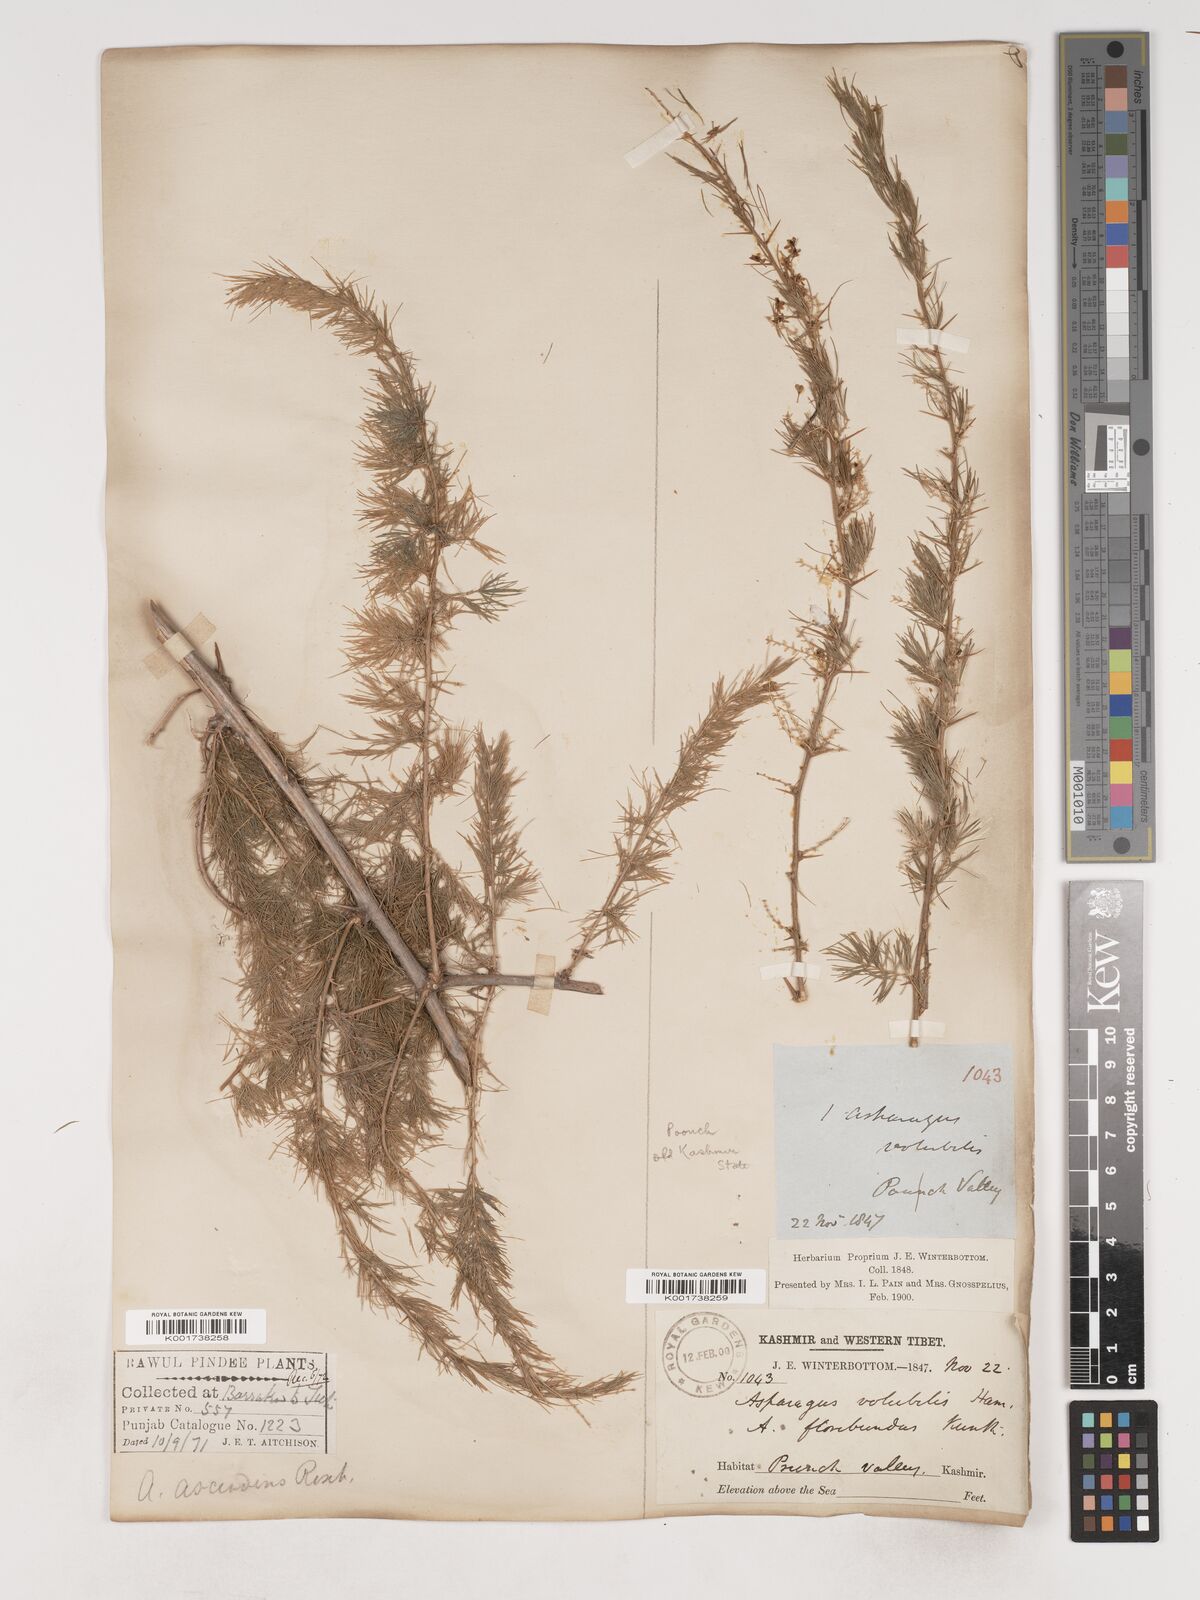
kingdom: Plantae
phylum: Tracheophyta
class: Liliopsida
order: Asparagales
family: Asparagaceae
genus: Asparagus
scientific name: Asparagus adscendens
